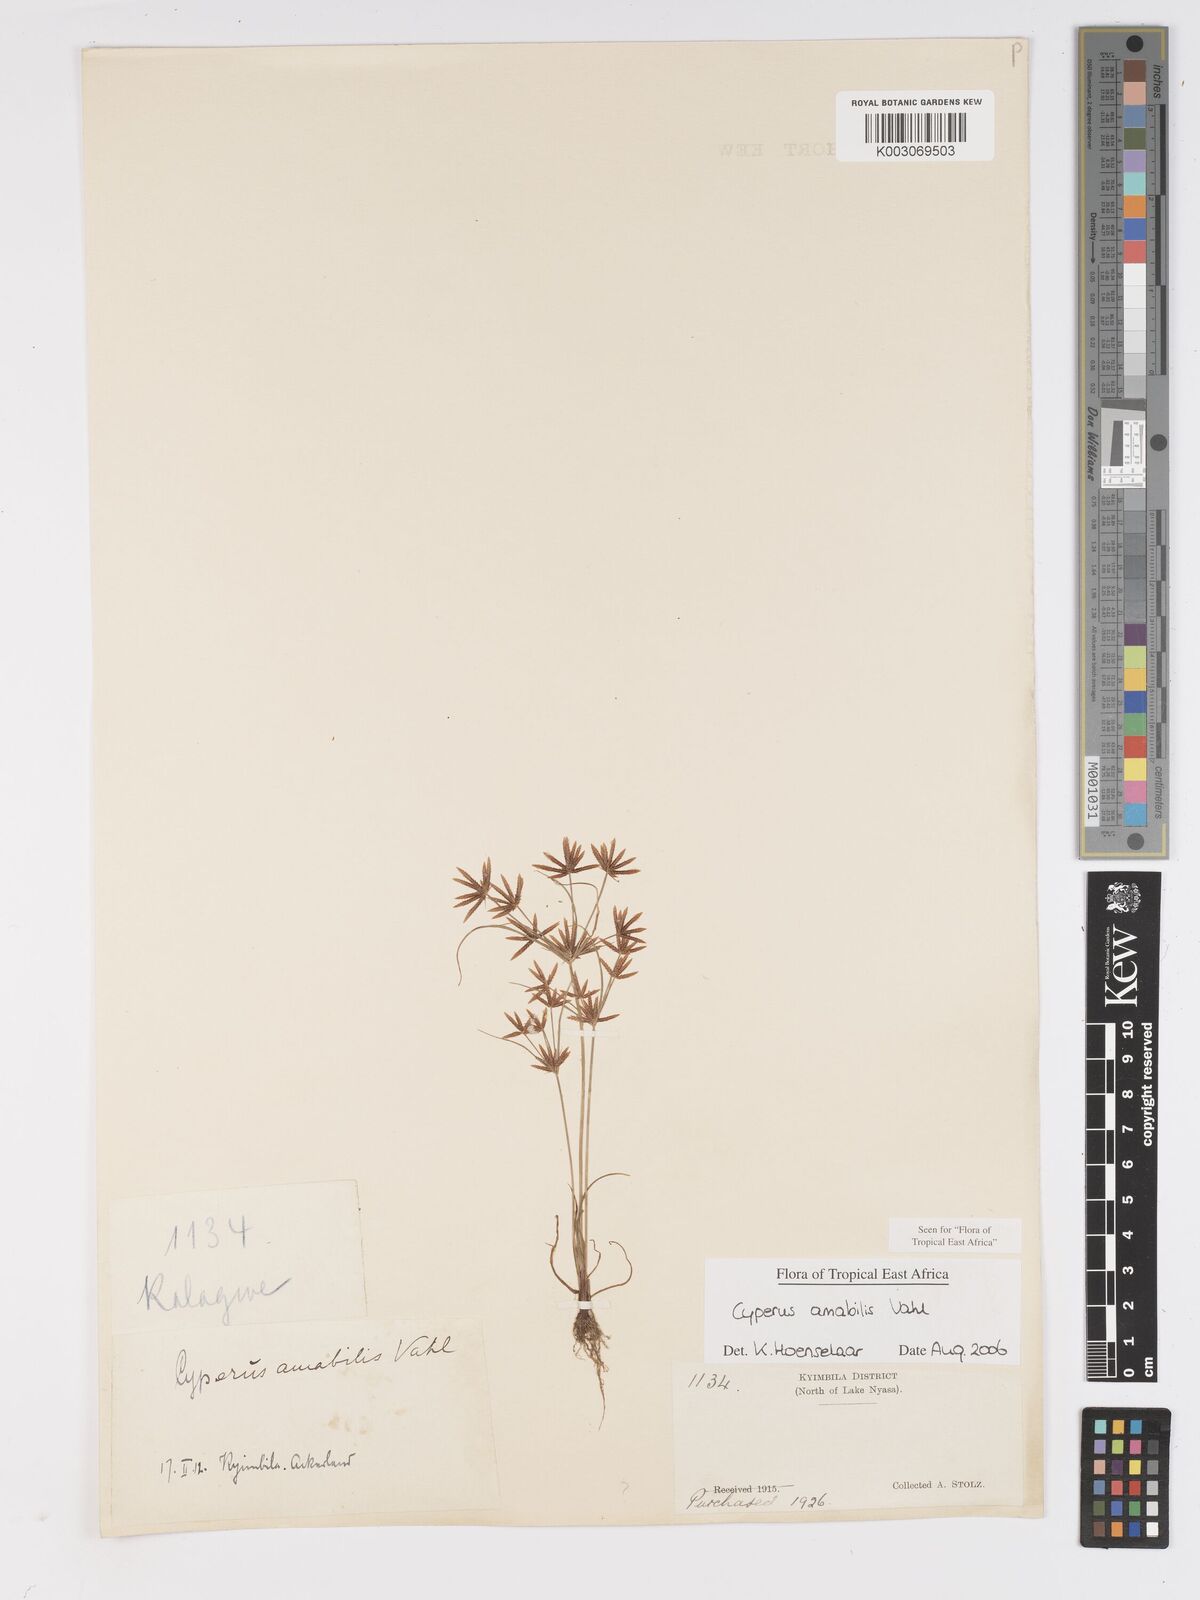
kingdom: Plantae
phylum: Tracheophyta
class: Liliopsida
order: Poales
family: Cyperaceae
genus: Cyperus
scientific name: Cyperus amabilis
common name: Foothill flat sedge
